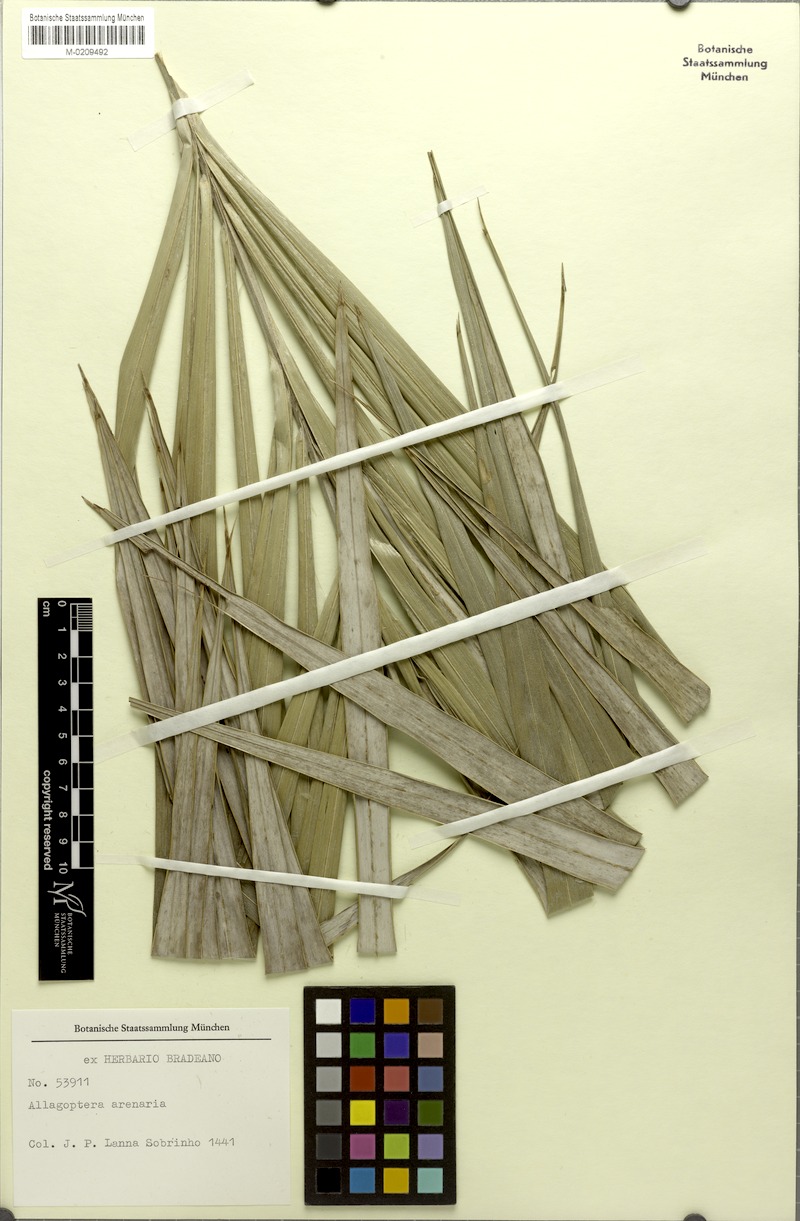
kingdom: Plantae
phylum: Tracheophyta
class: Liliopsida
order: Arecales
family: Arecaceae
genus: Allagoptera
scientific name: Allagoptera arenaria
